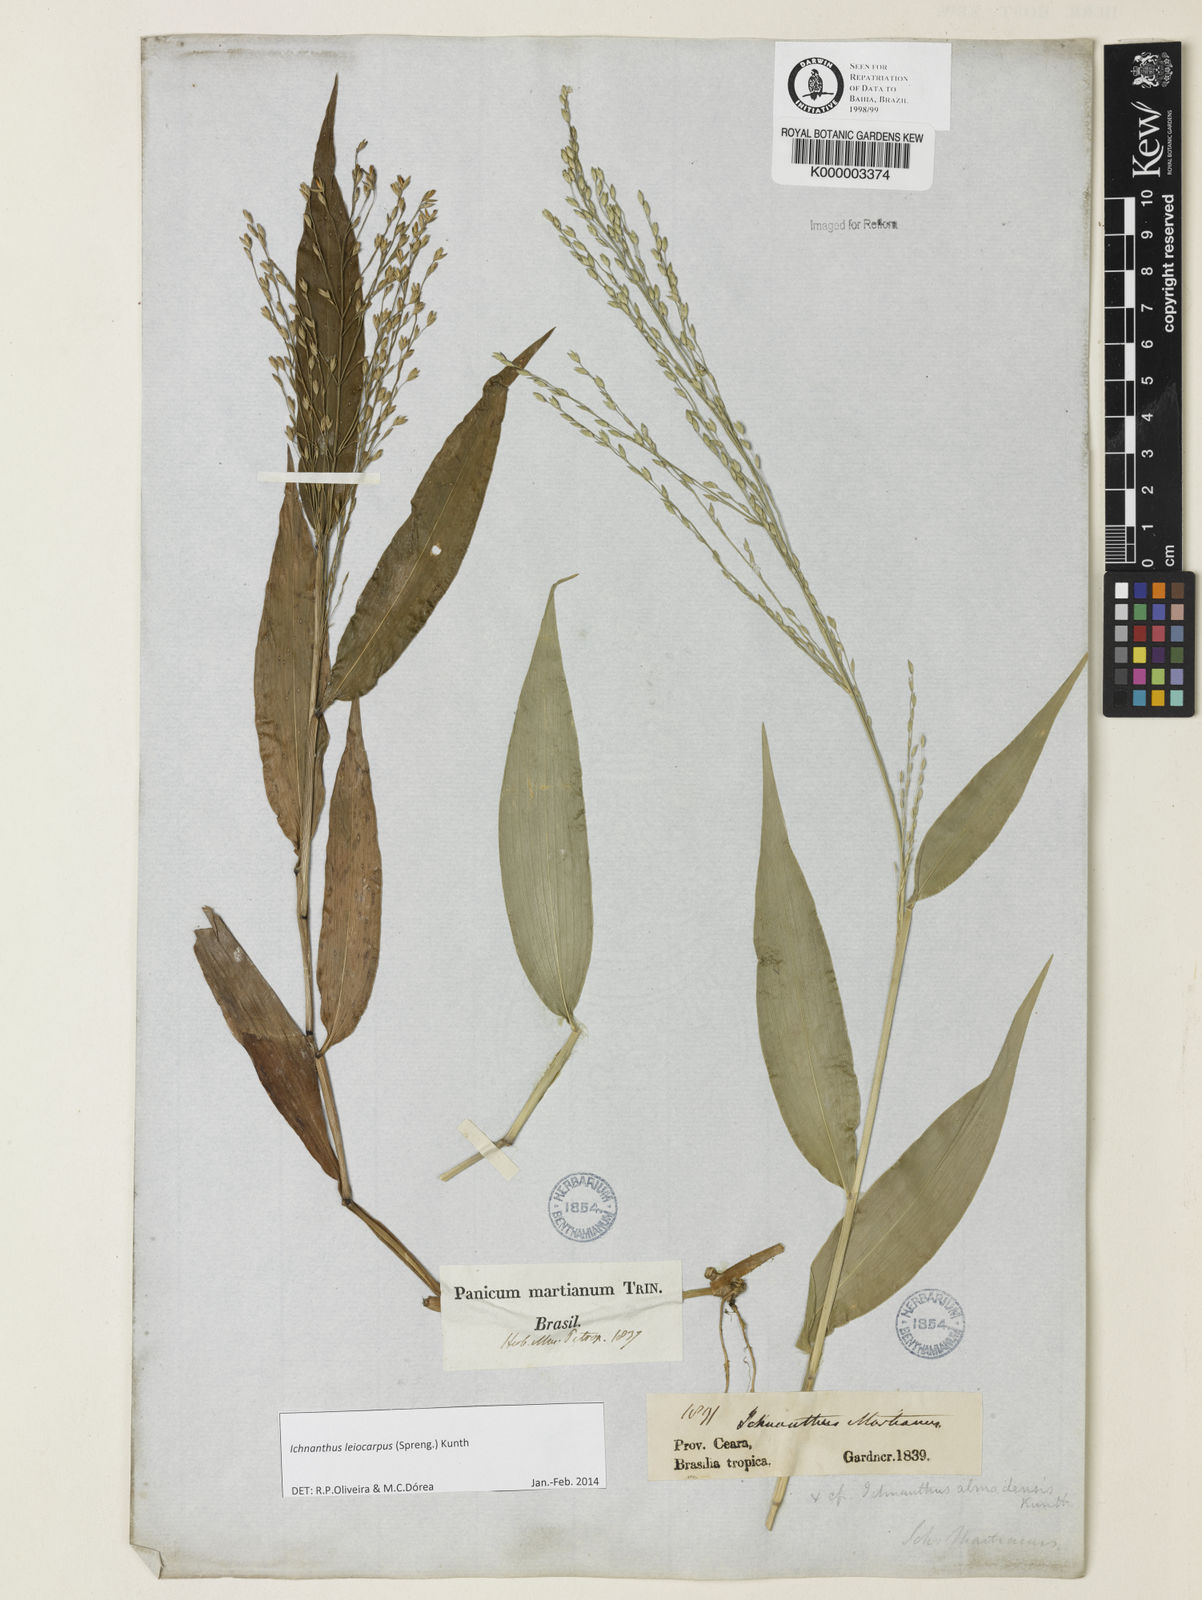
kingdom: Plantae
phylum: Tracheophyta
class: Liliopsida
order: Poales
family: Poaceae
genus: Ichnanthus
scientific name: Ichnanthus nemoralis
